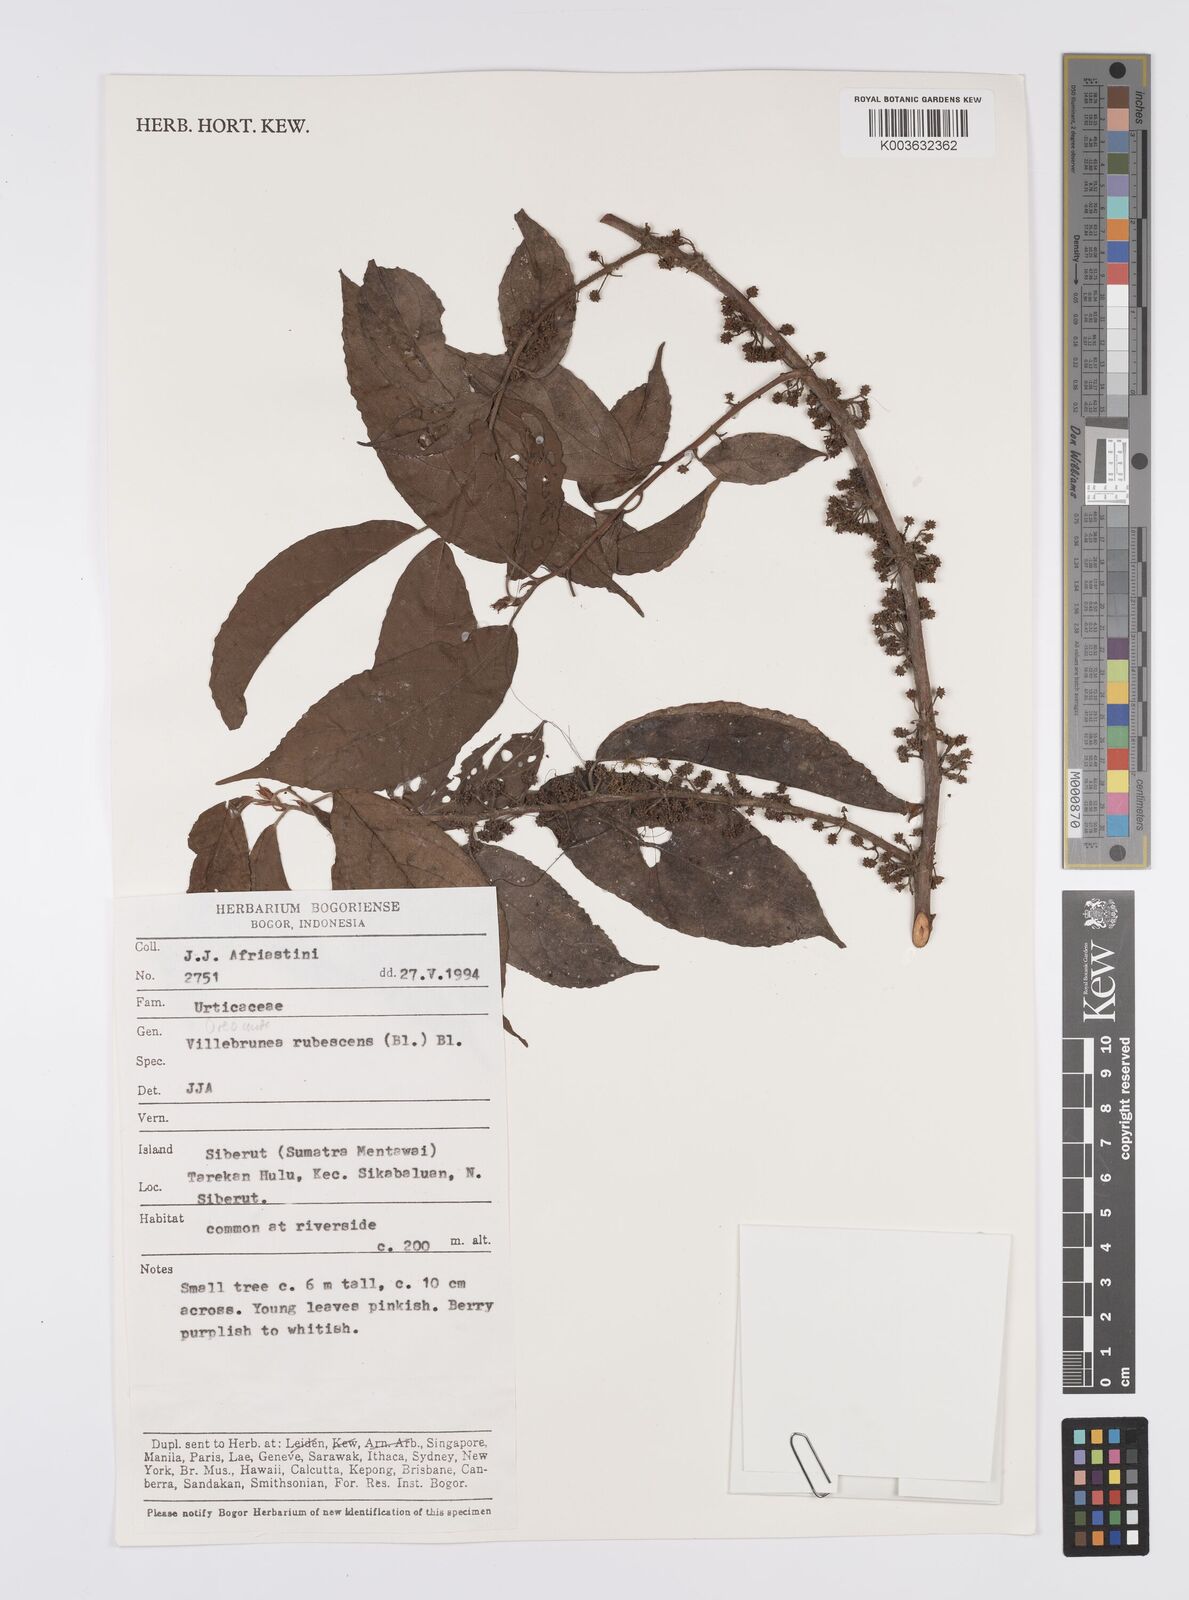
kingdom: Plantae
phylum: Tracheophyta
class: Magnoliopsida
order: Rosales
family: Urticaceae
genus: Oreocnide
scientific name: Oreocnide rubescens
